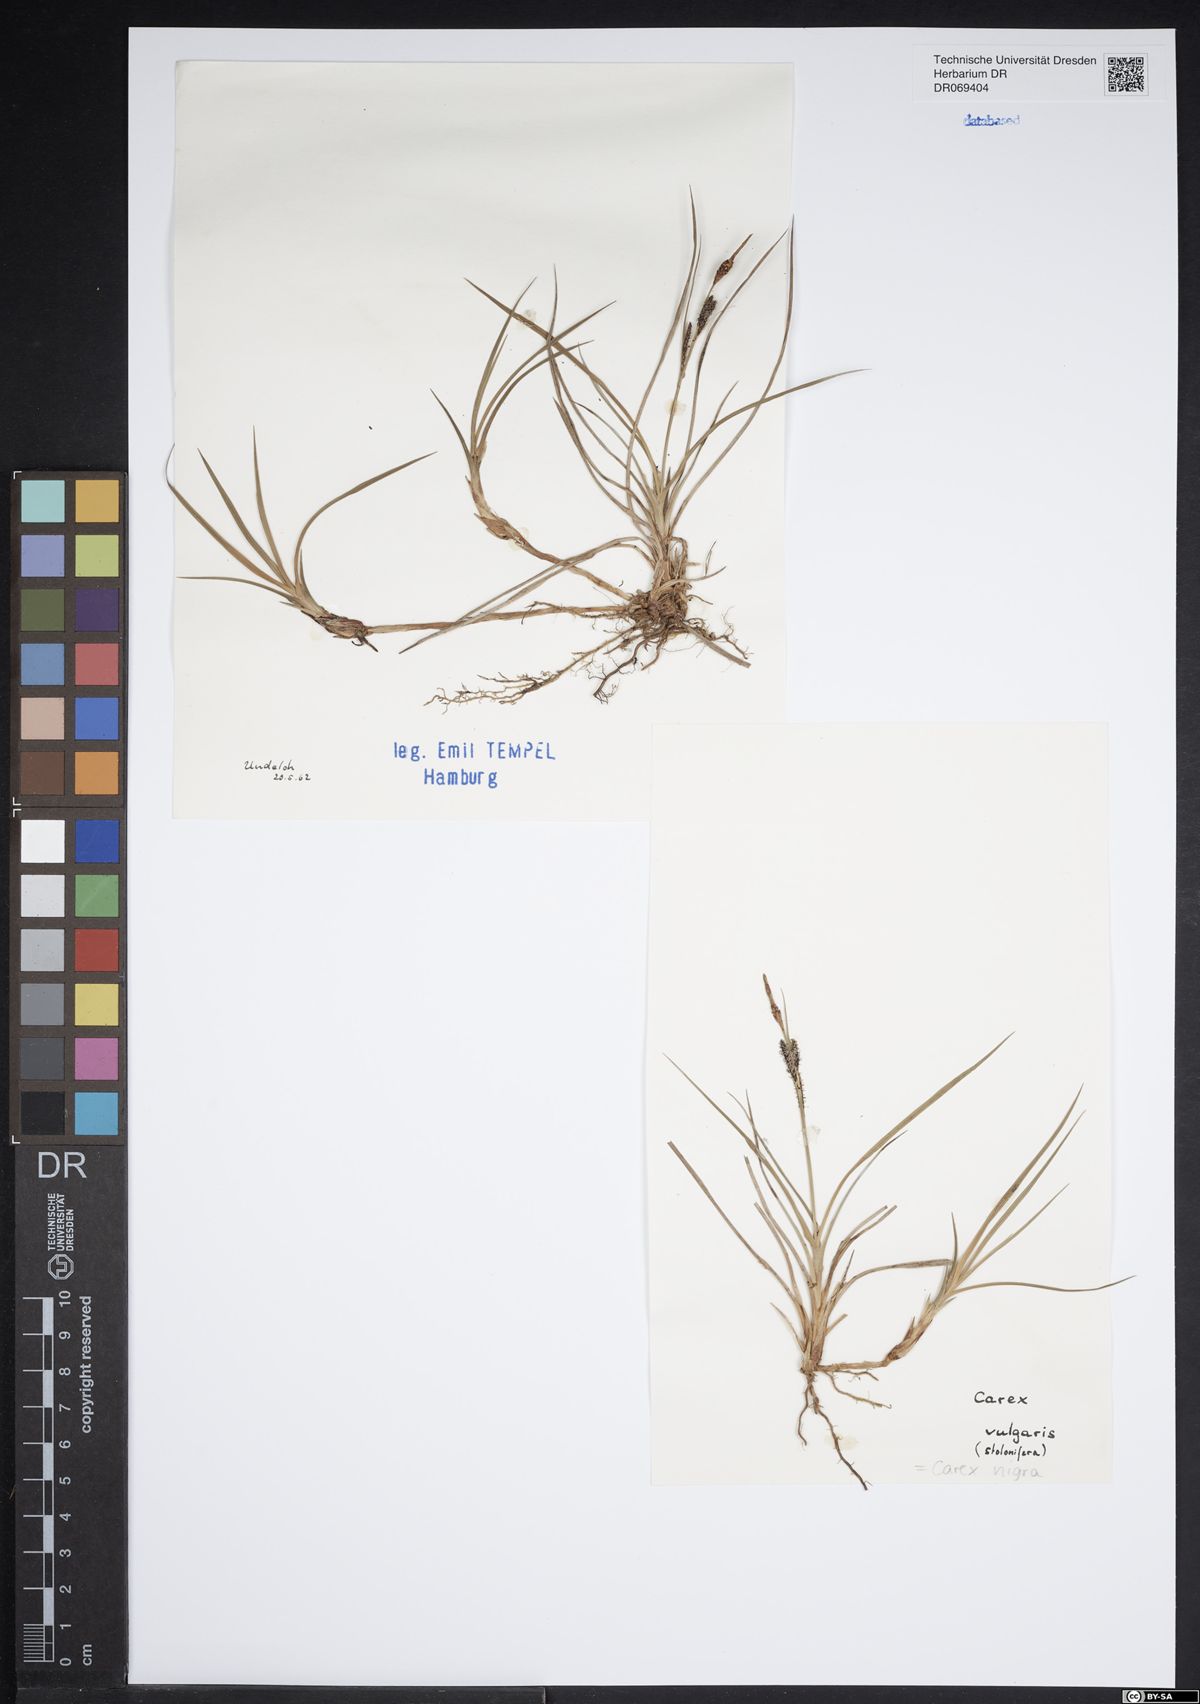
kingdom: Plantae
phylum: Tracheophyta
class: Liliopsida
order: Poales
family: Cyperaceae
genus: Carex
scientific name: Carex nigra
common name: Common sedge
